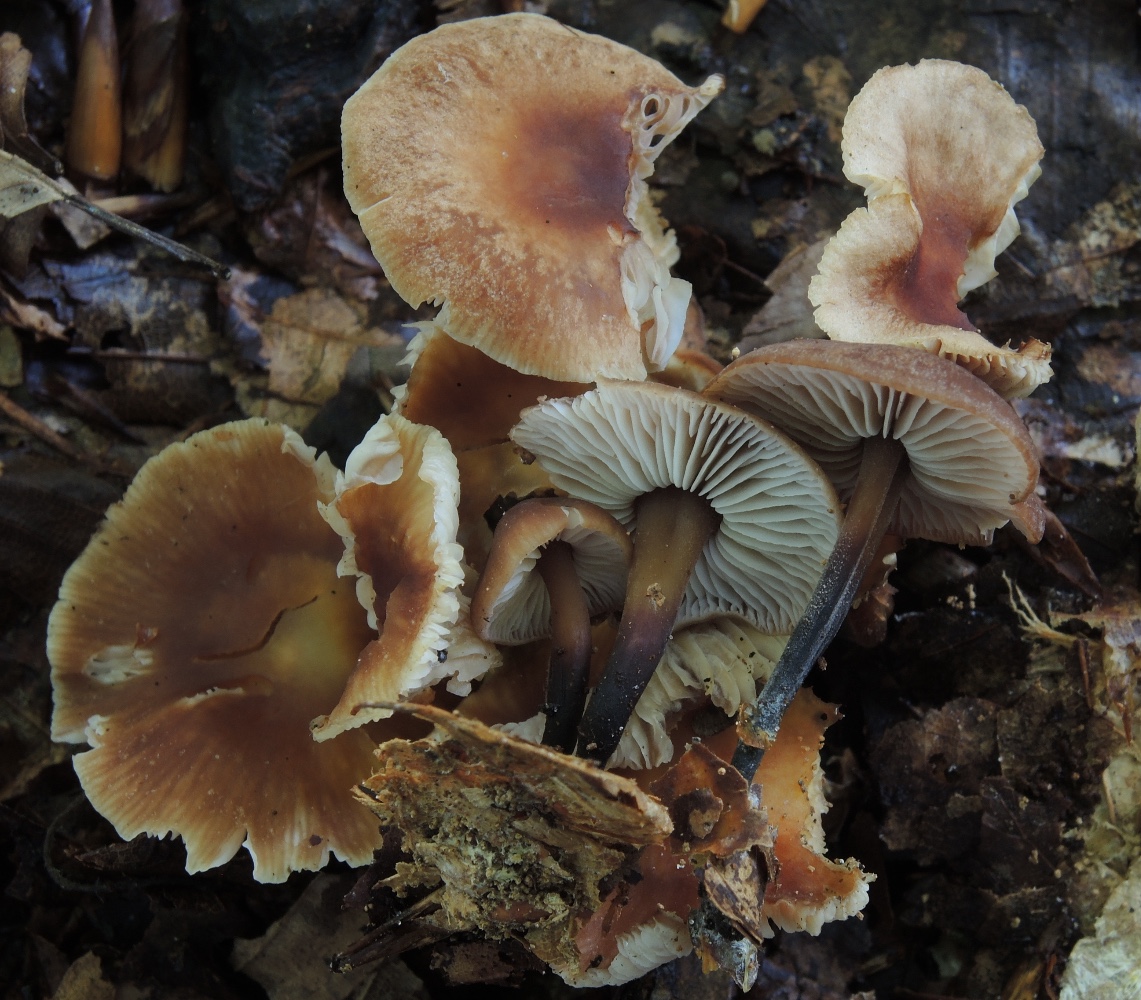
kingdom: Fungi
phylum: Basidiomycota
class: Agaricomycetes
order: Agaricales
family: Omphalotaceae
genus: Gymnopus
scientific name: Gymnopus brassicolens
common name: kål-fladhat
